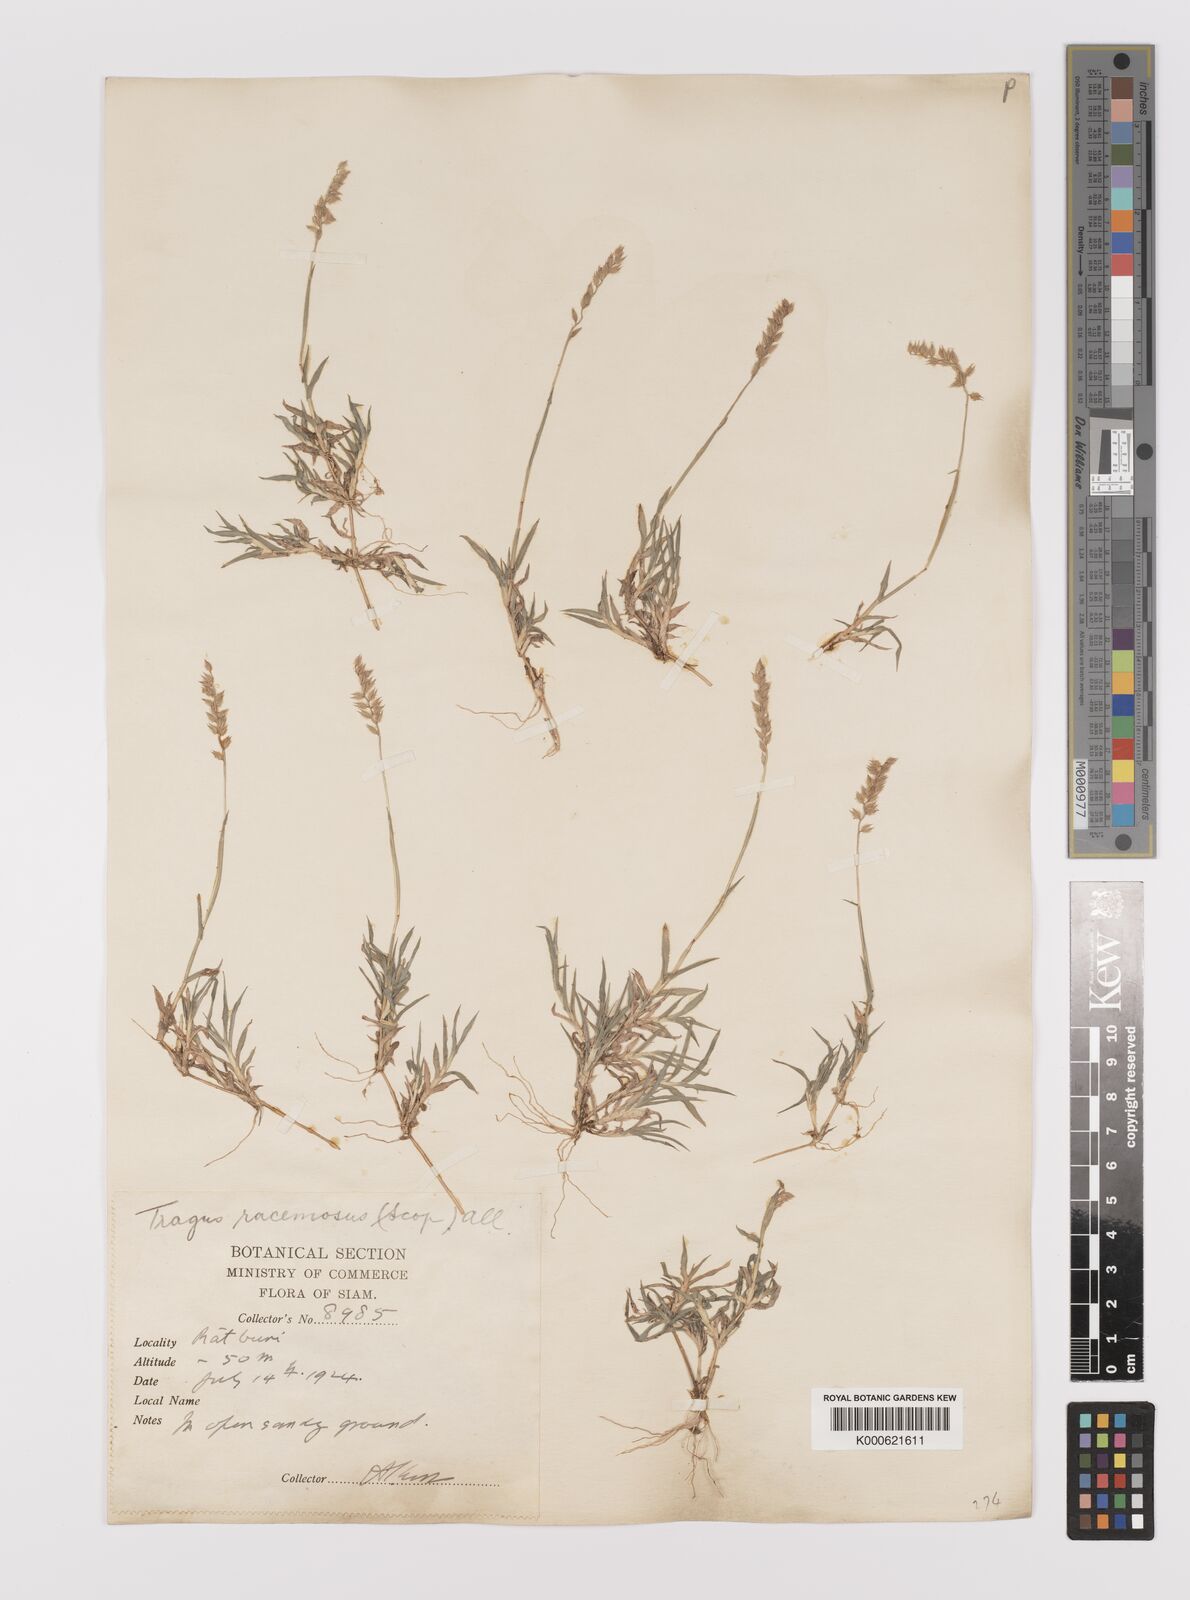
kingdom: Plantae
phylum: Tracheophyta
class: Liliopsida
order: Poales
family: Poaceae
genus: Tragus
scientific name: Tragus mongolorum
